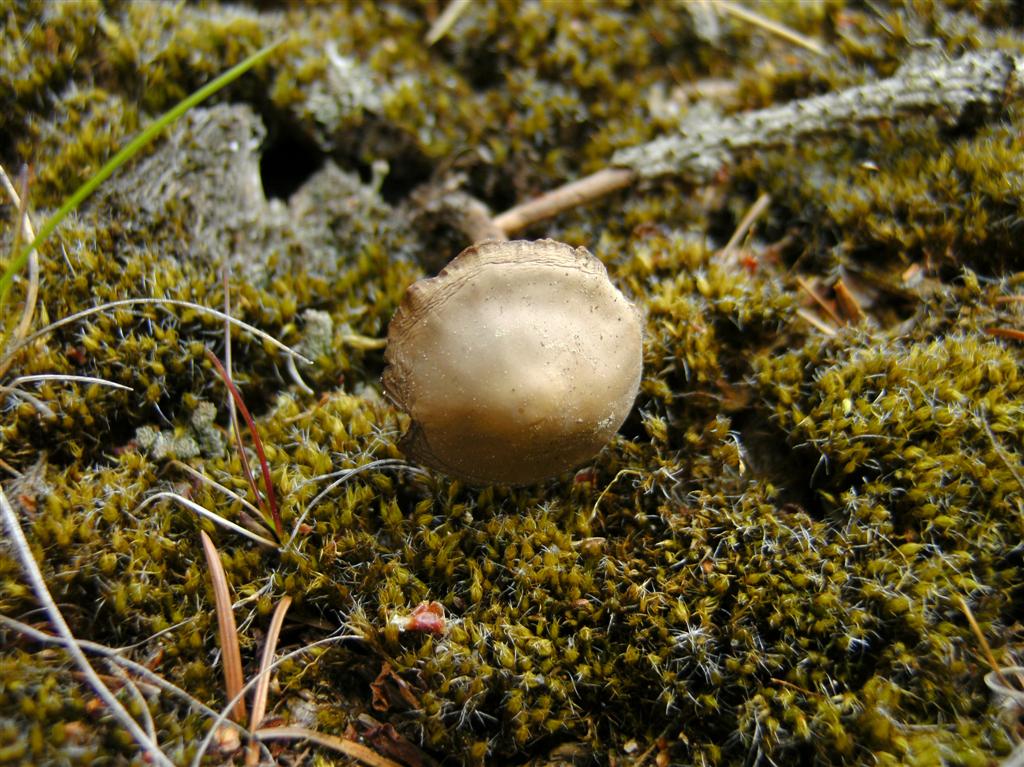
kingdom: Fungi
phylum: Basidiomycota
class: Agaricomycetes
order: Agaricales
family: Physalacriaceae
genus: Strobilurus
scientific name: Strobilurus tenacellus
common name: sommer-koglehat
